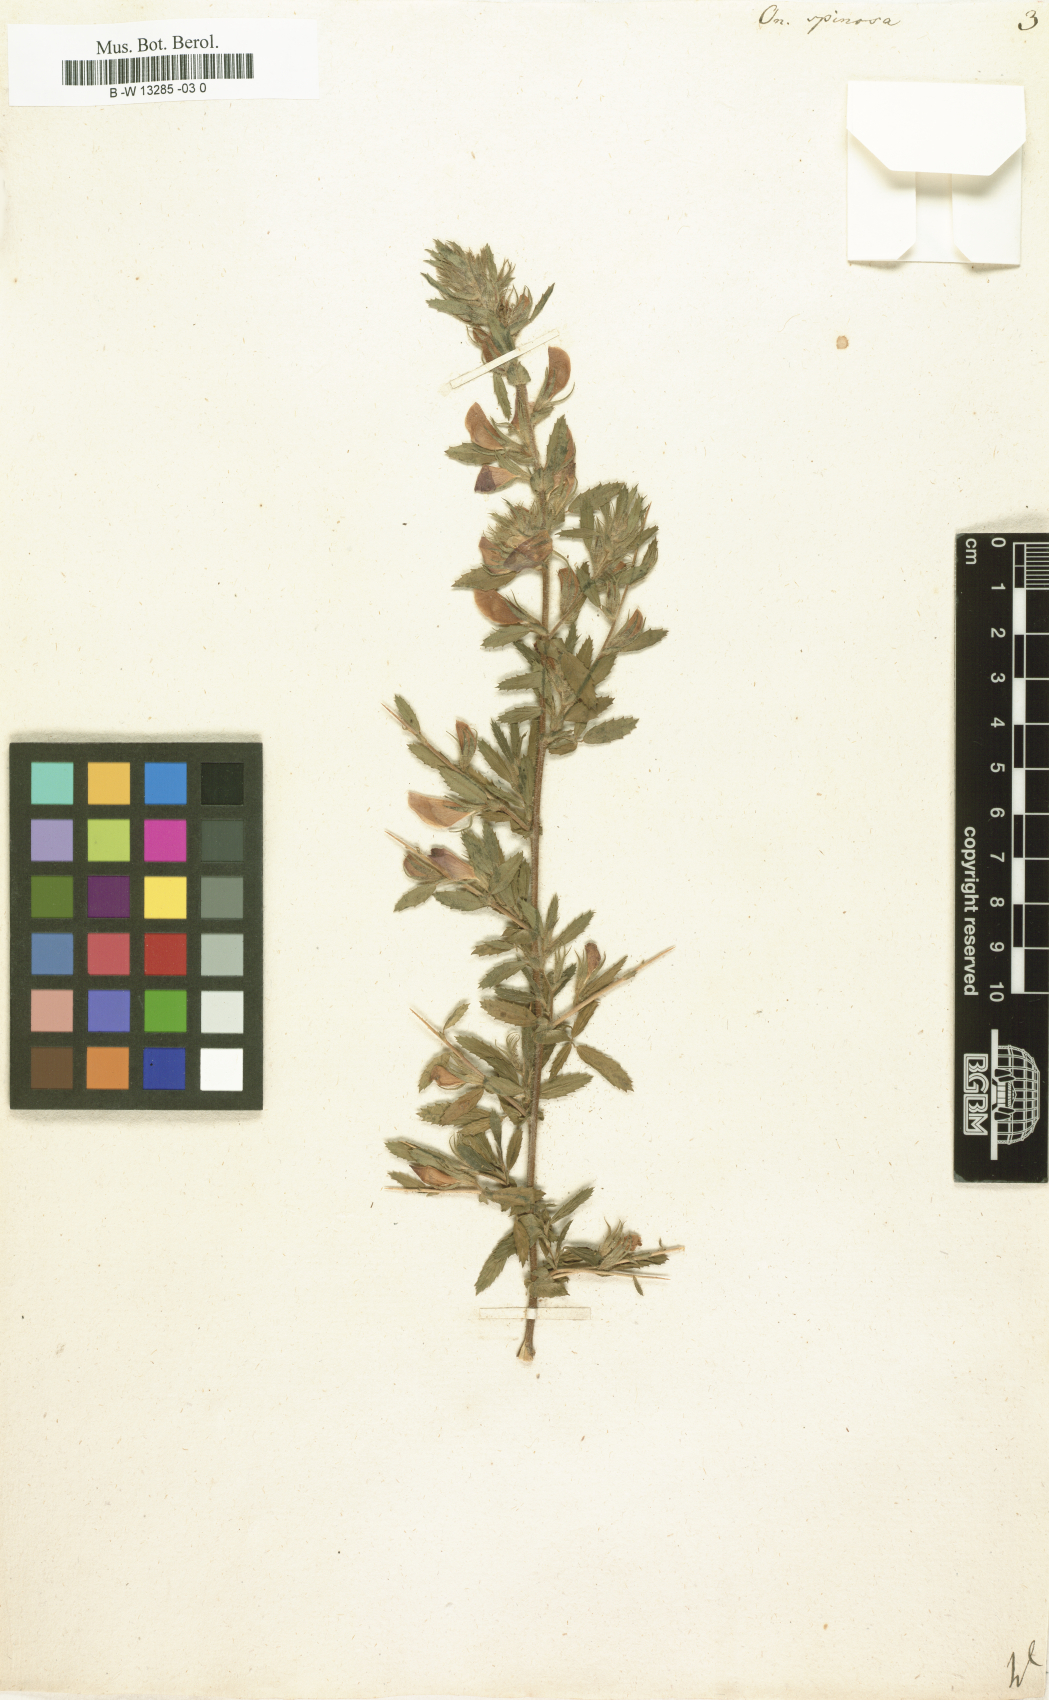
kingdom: Plantae
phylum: Tracheophyta
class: Magnoliopsida
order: Fabales
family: Fabaceae
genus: Ononis
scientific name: Ononis spinosa
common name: Spiny restharrow
